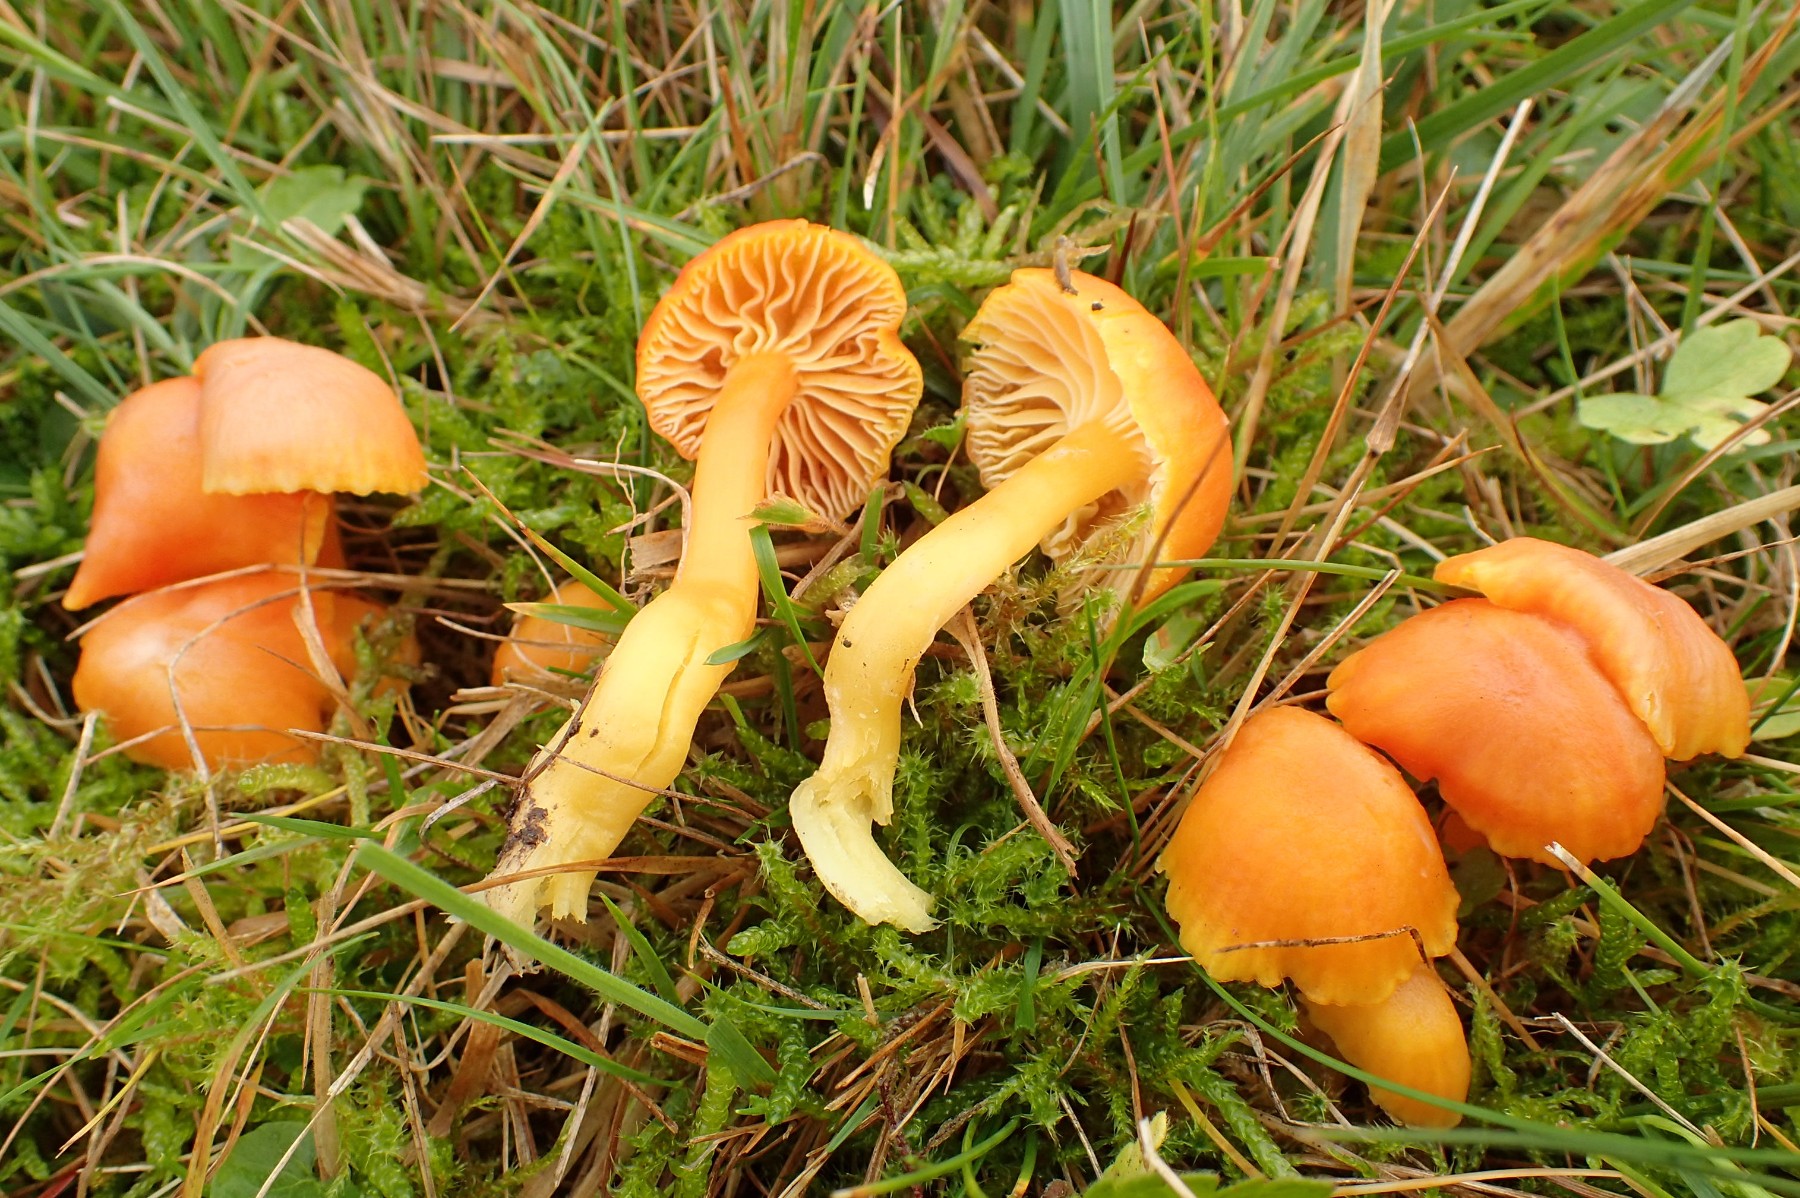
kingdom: Fungi
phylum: Basidiomycota
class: Agaricomycetes
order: Agaricales
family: Hygrophoraceae
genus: Hygrocybe
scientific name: Hygrocybe reidii
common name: honning-vokshat
